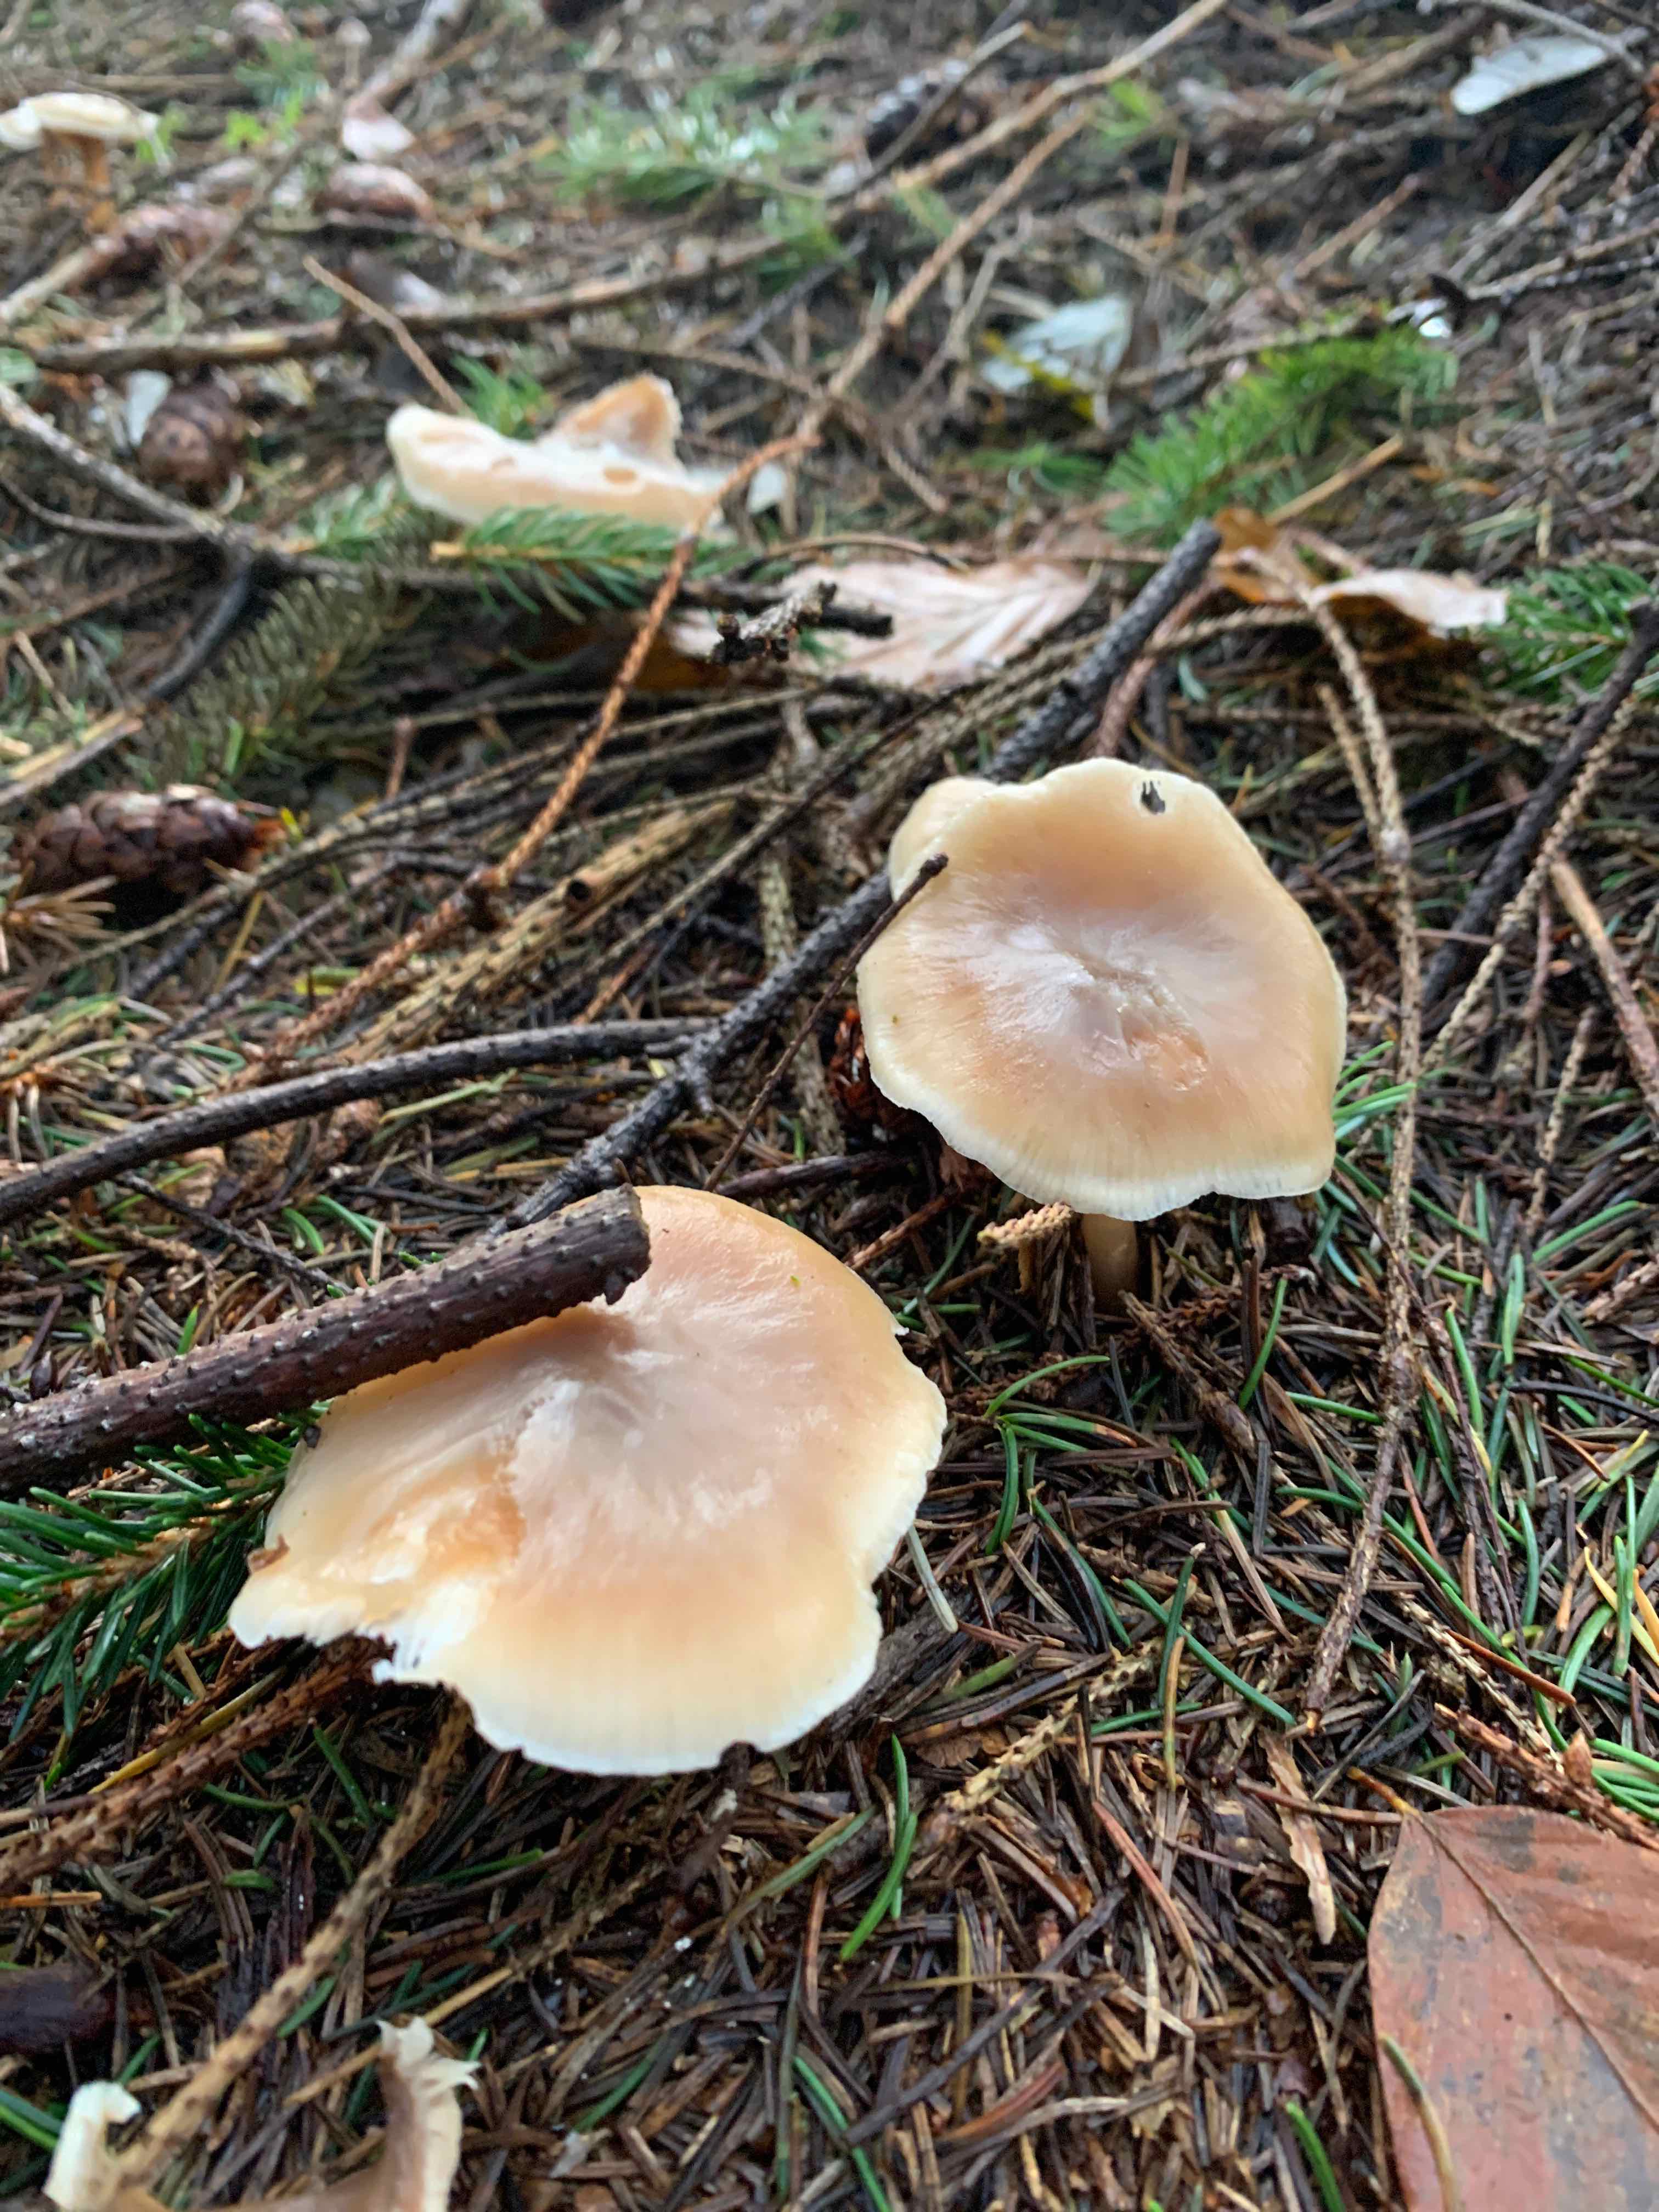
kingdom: Fungi
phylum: Basidiomycota
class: Agaricomycetes
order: Agaricales
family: Omphalotaceae
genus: Rhodocollybia
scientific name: Rhodocollybia asema
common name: horngrå fladhat
